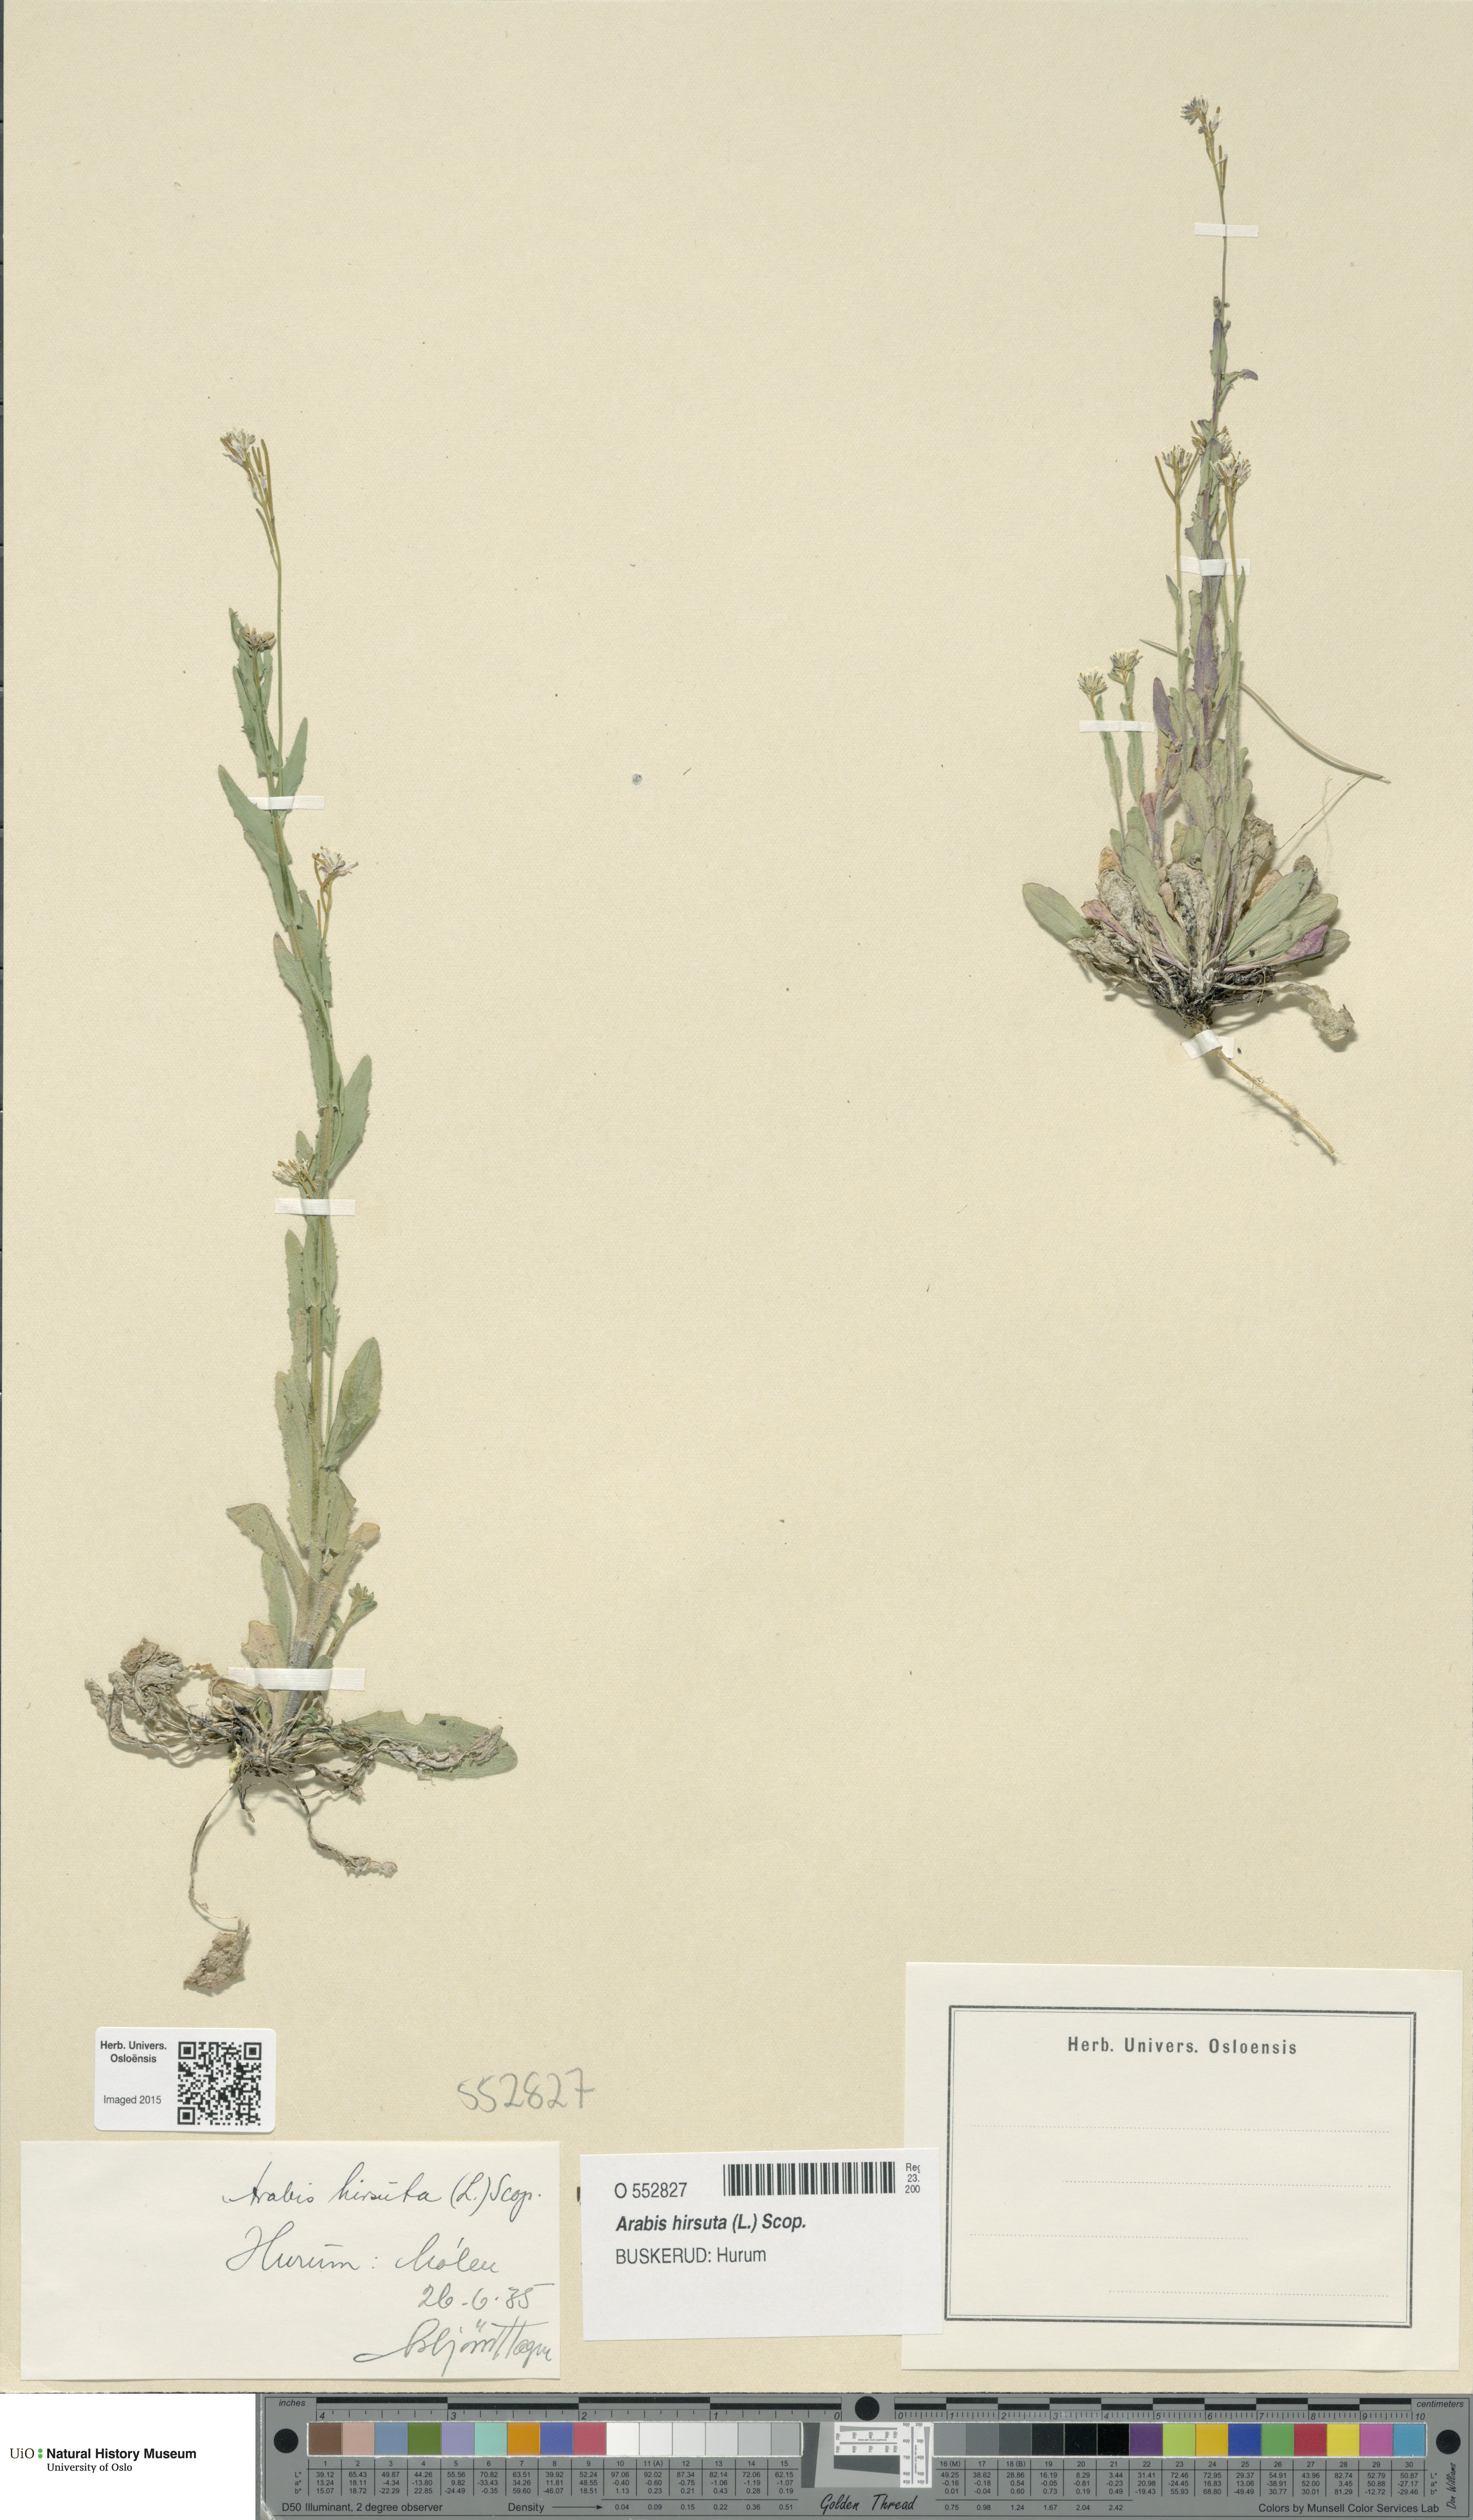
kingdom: Plantae
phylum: Tracheophyta
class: Magnoliopsida
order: Brassicales
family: Brassicaceae
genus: Arabis
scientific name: Arabis hirsuta
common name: Hairy rock-cress
